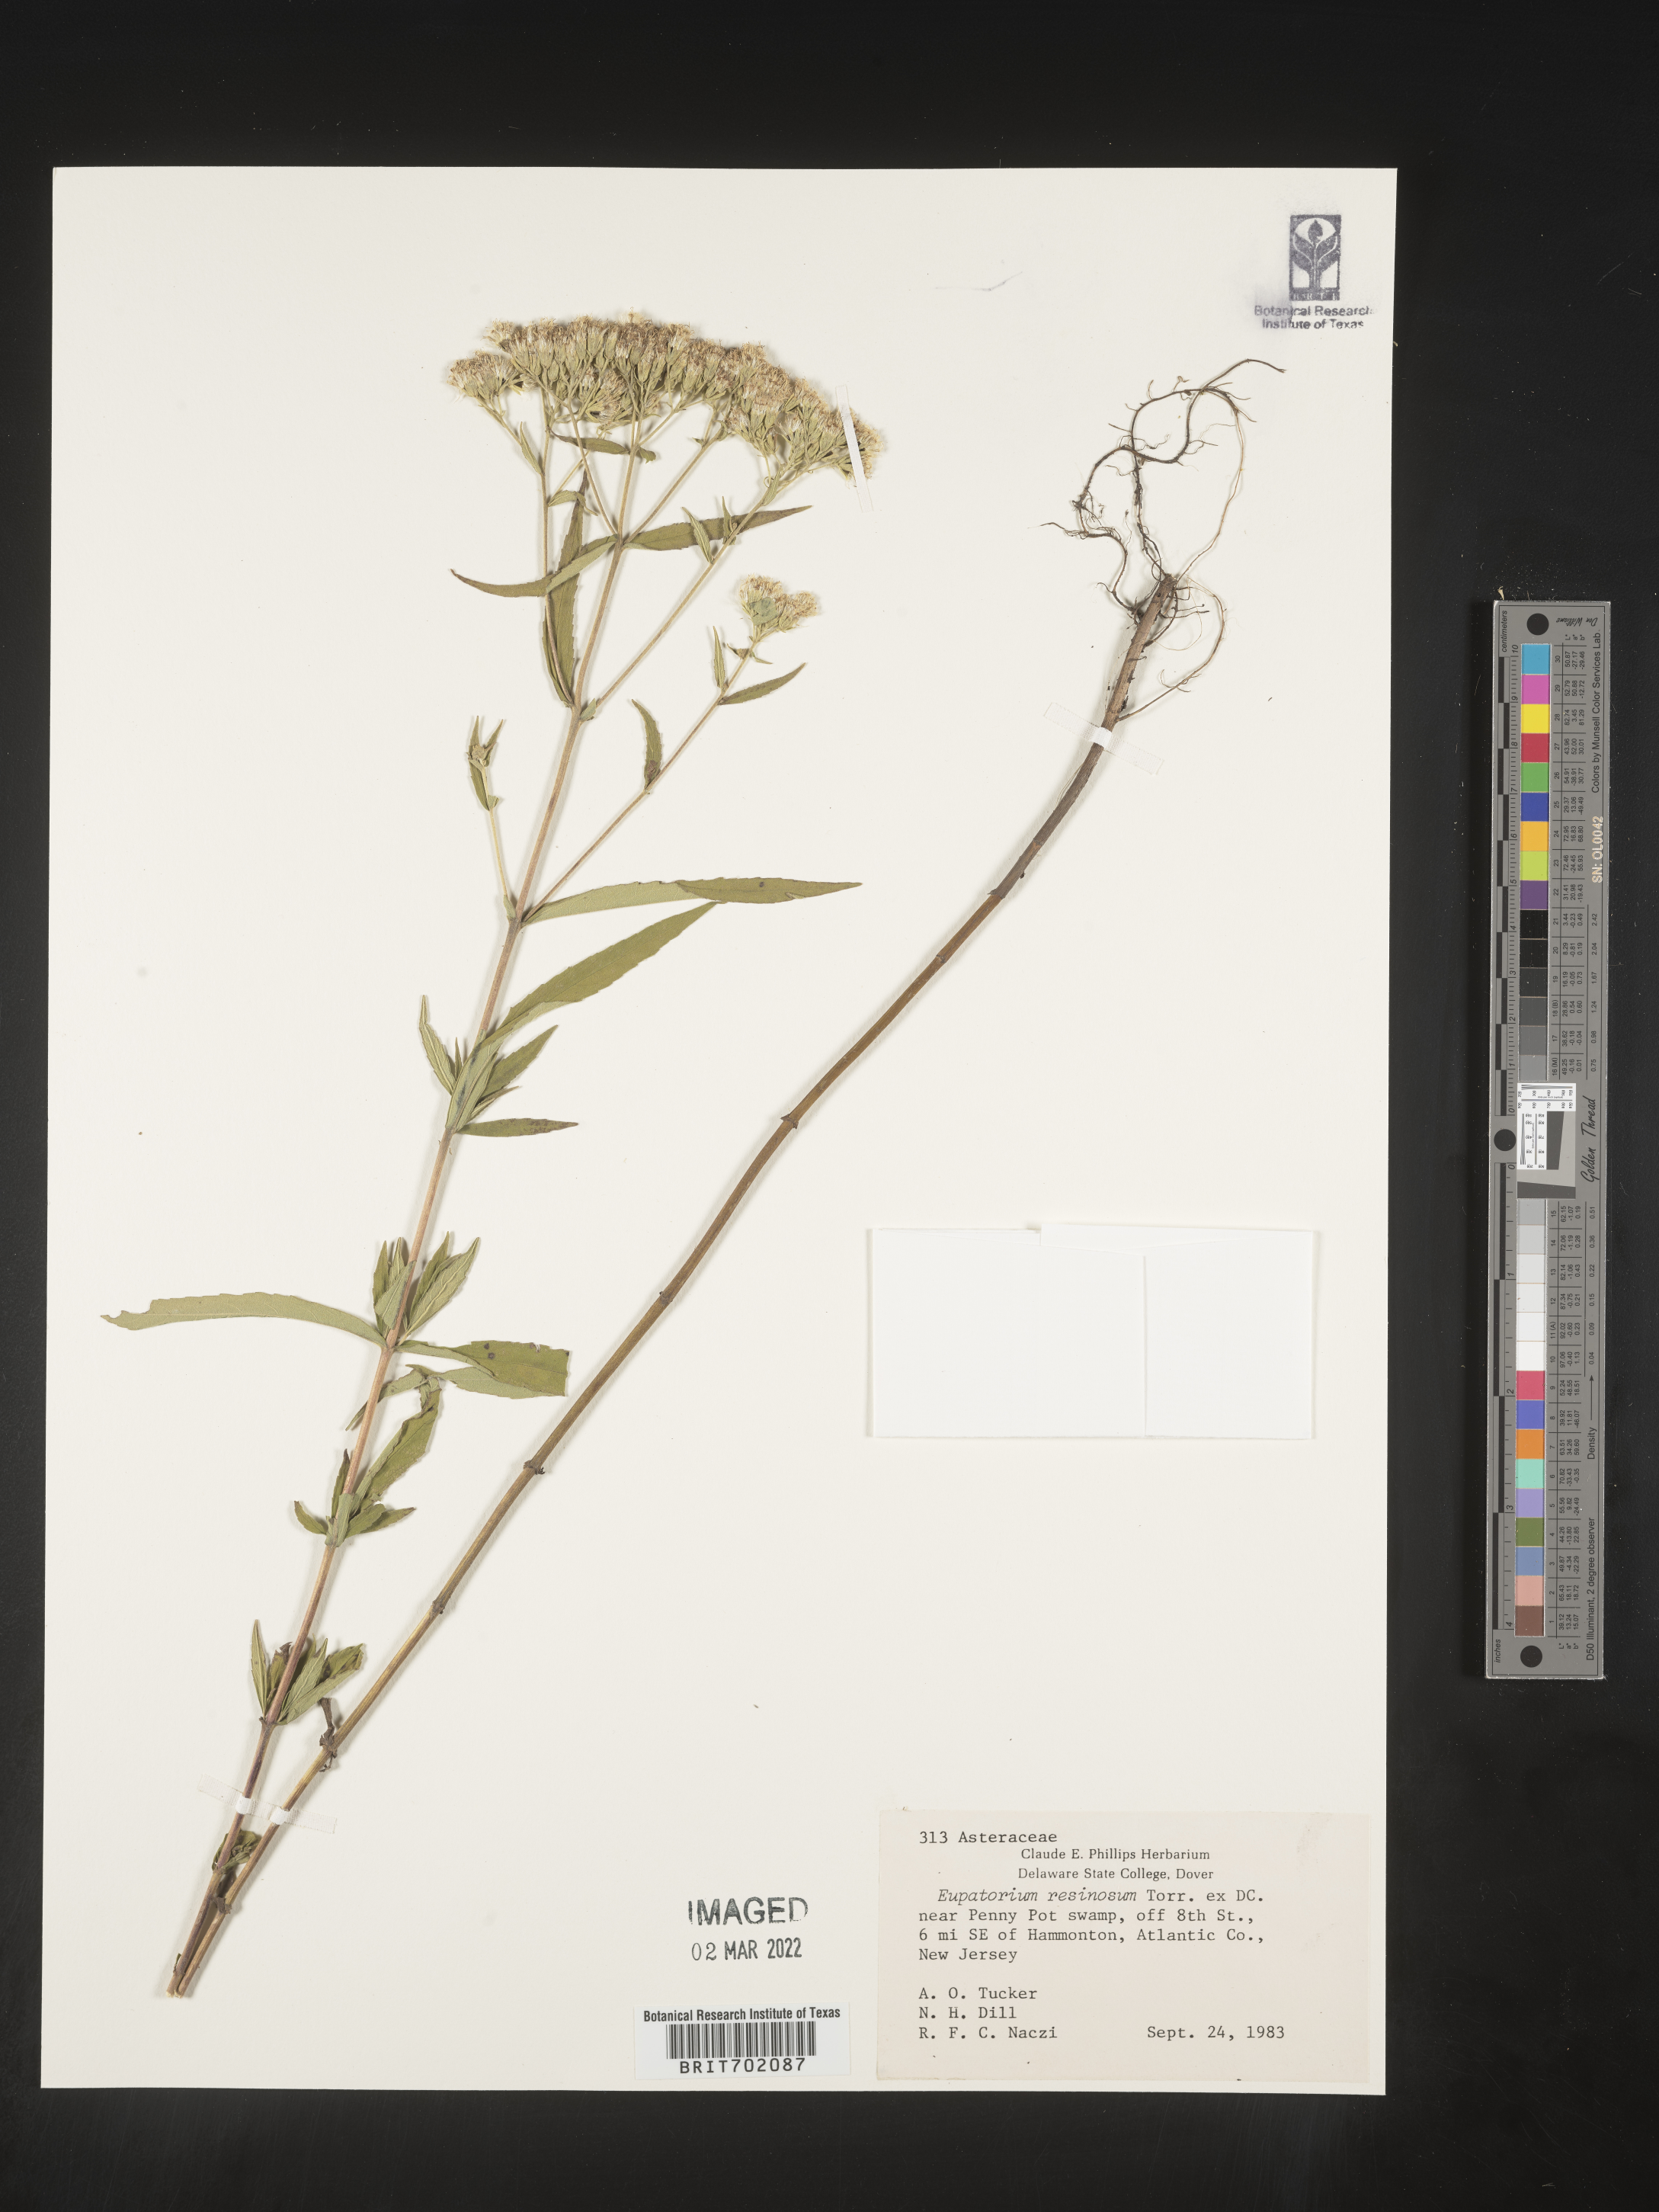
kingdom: Plantae
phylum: Tracheophyta
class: Magnoliopsida
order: Asterales
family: Asteraceae
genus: Eupatorium
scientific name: Eupatorium resinosum
